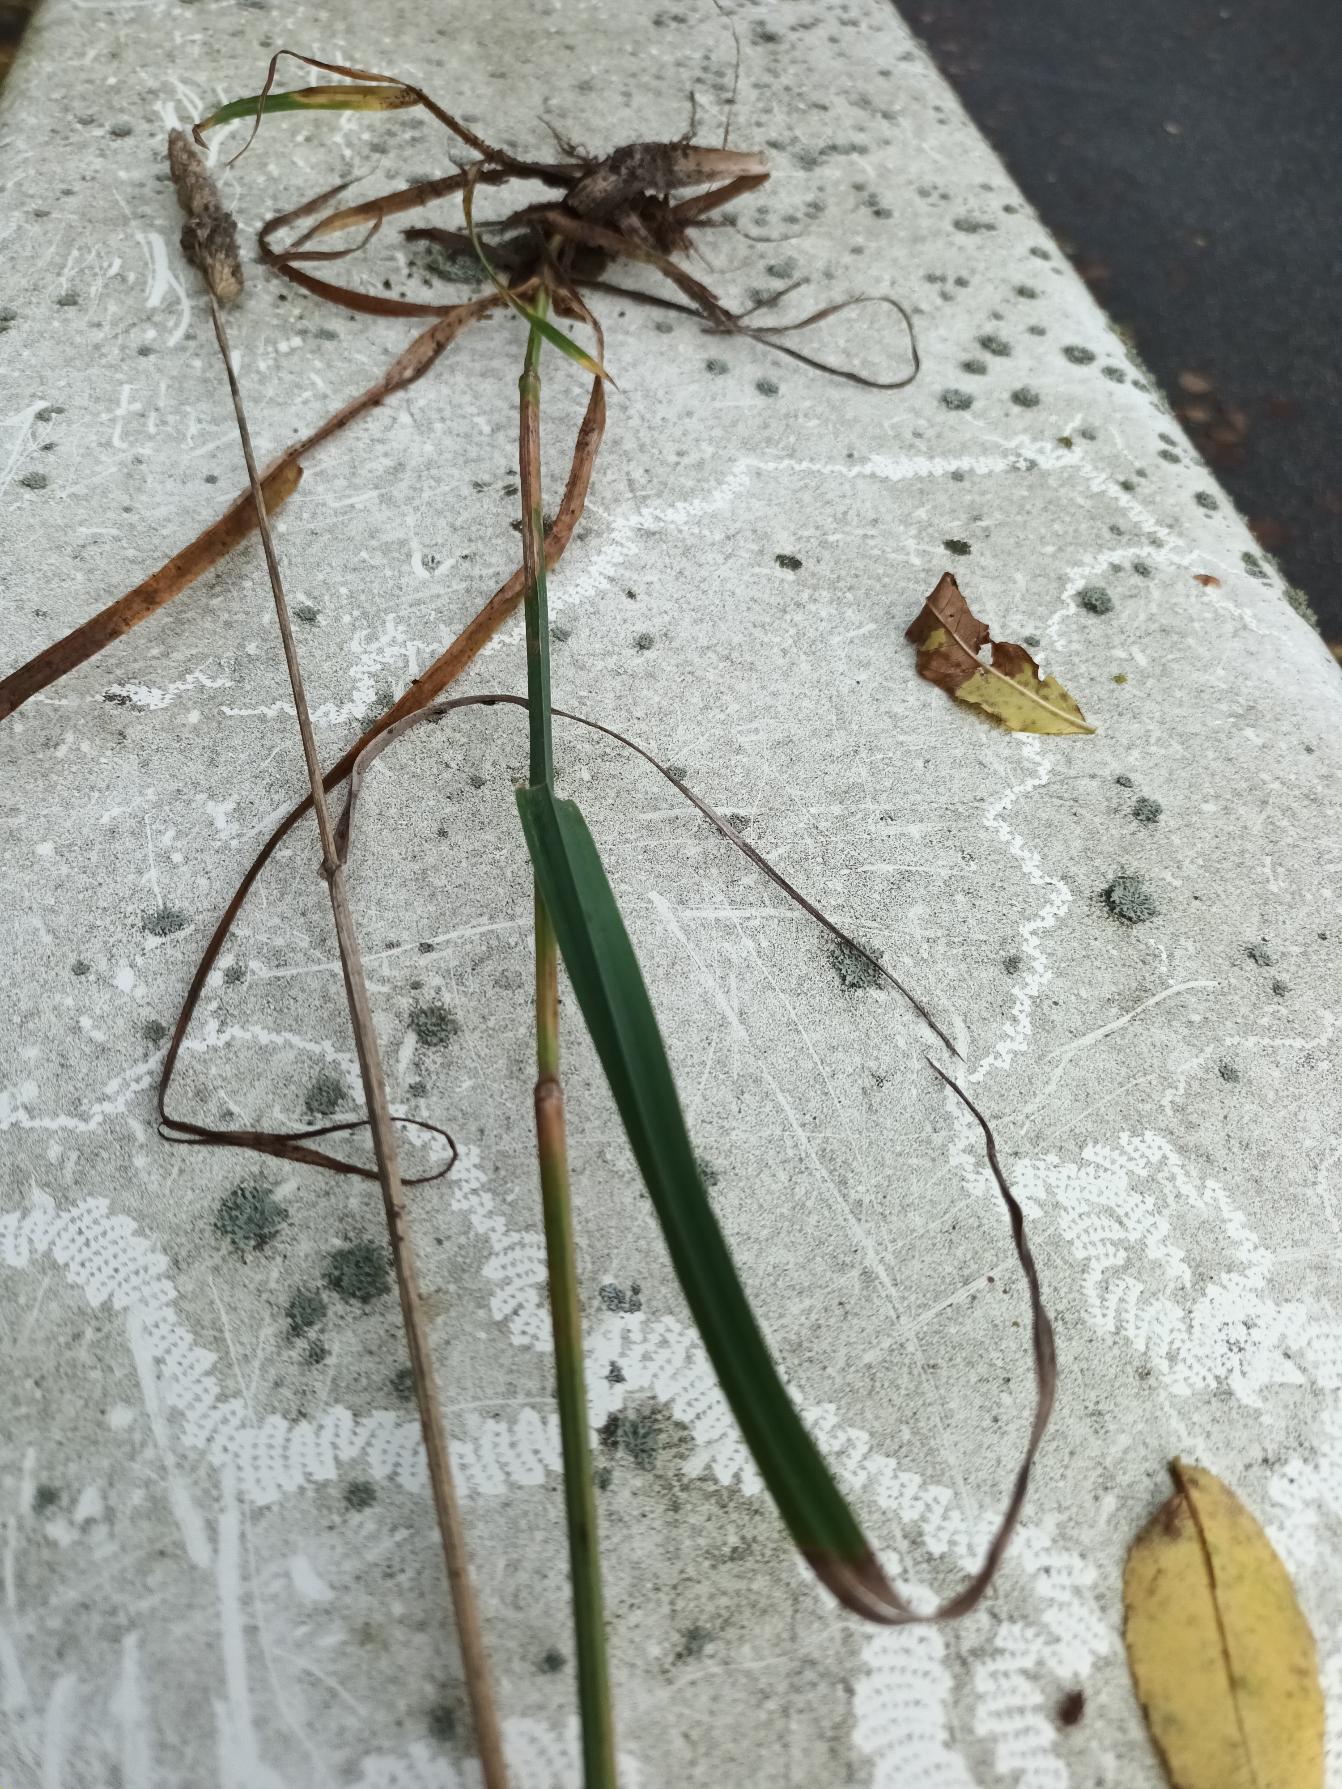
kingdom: Plantae
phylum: Tracheophyta
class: Liliopsida
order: Poales
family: Poaceae
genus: Dactylis
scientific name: Dactylis glomerata
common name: Almindelig hundegræs
